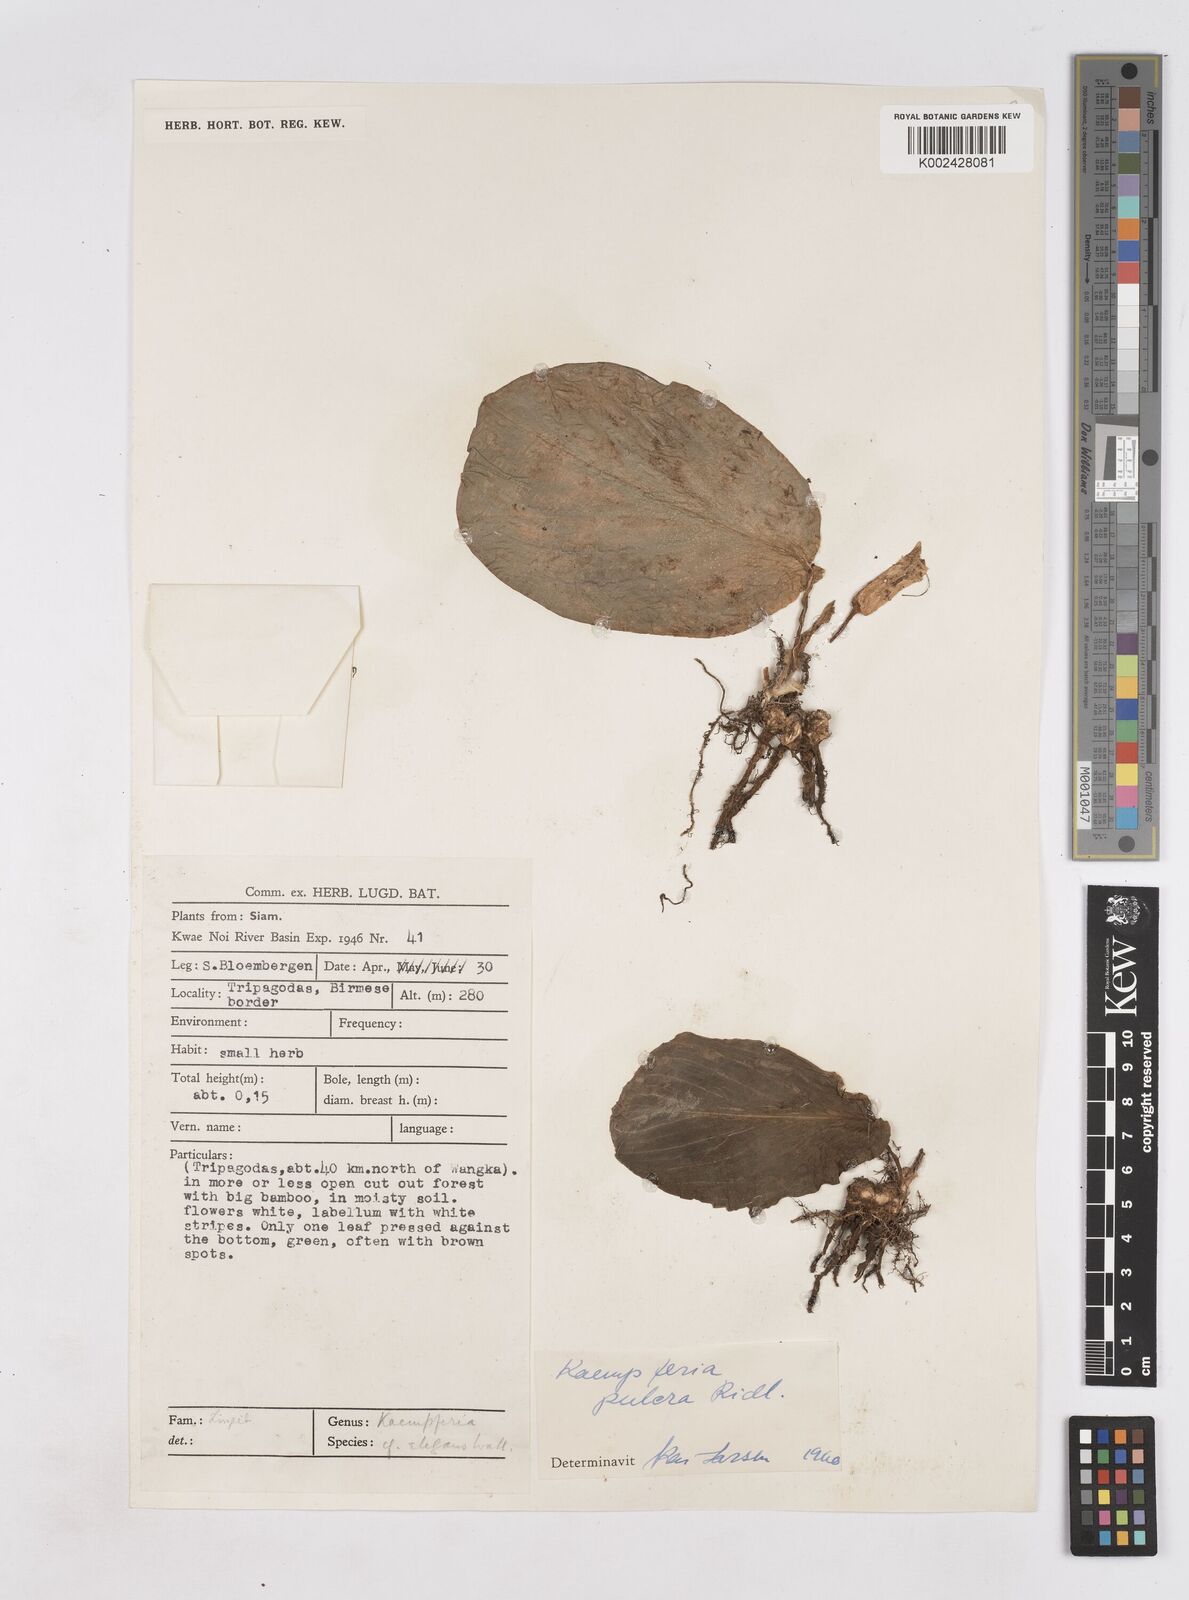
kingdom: Plantae
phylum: Tracheophyta
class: Liliopsida
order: Zingiberales
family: Zingiberaceae
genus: Kaempferia
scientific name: Kaempferia elegans
